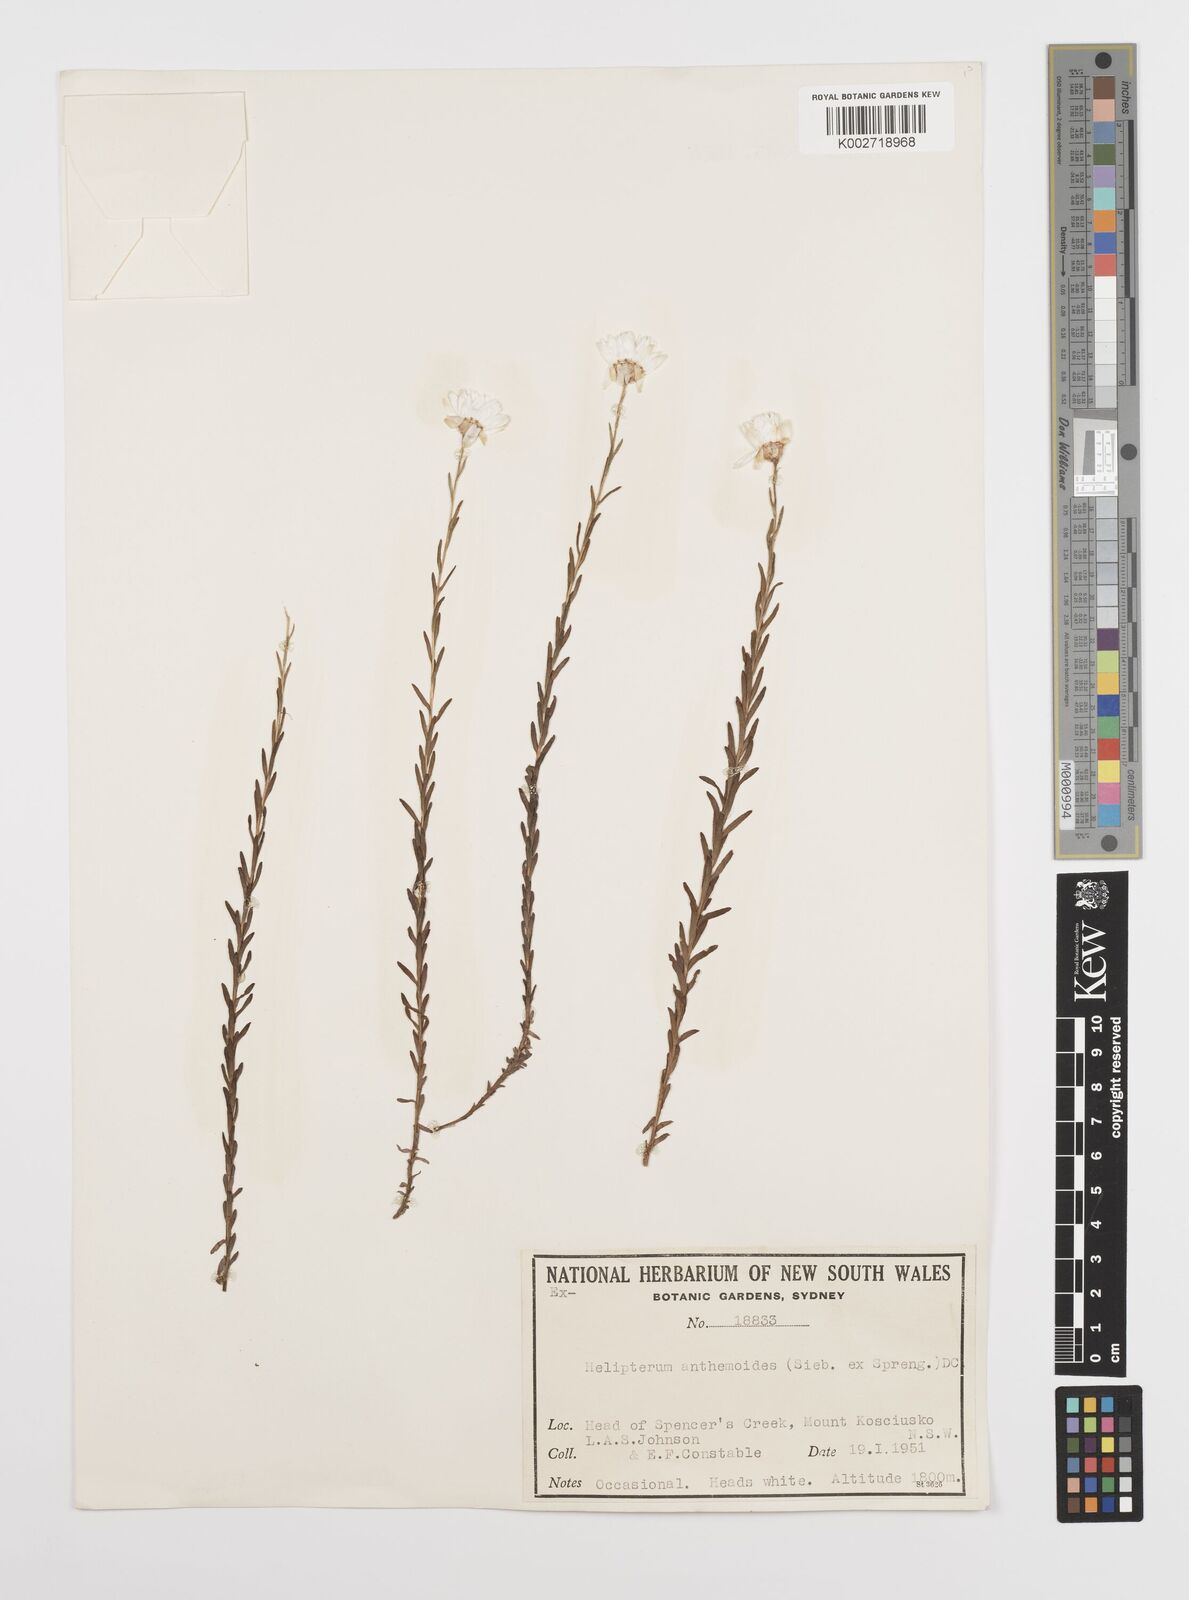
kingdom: Plantae
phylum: Tracheophyta
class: Magnoliopsida
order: Asterales
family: Asteraceae
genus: Rhodanthe
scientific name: Rhodanthe anthemoides
